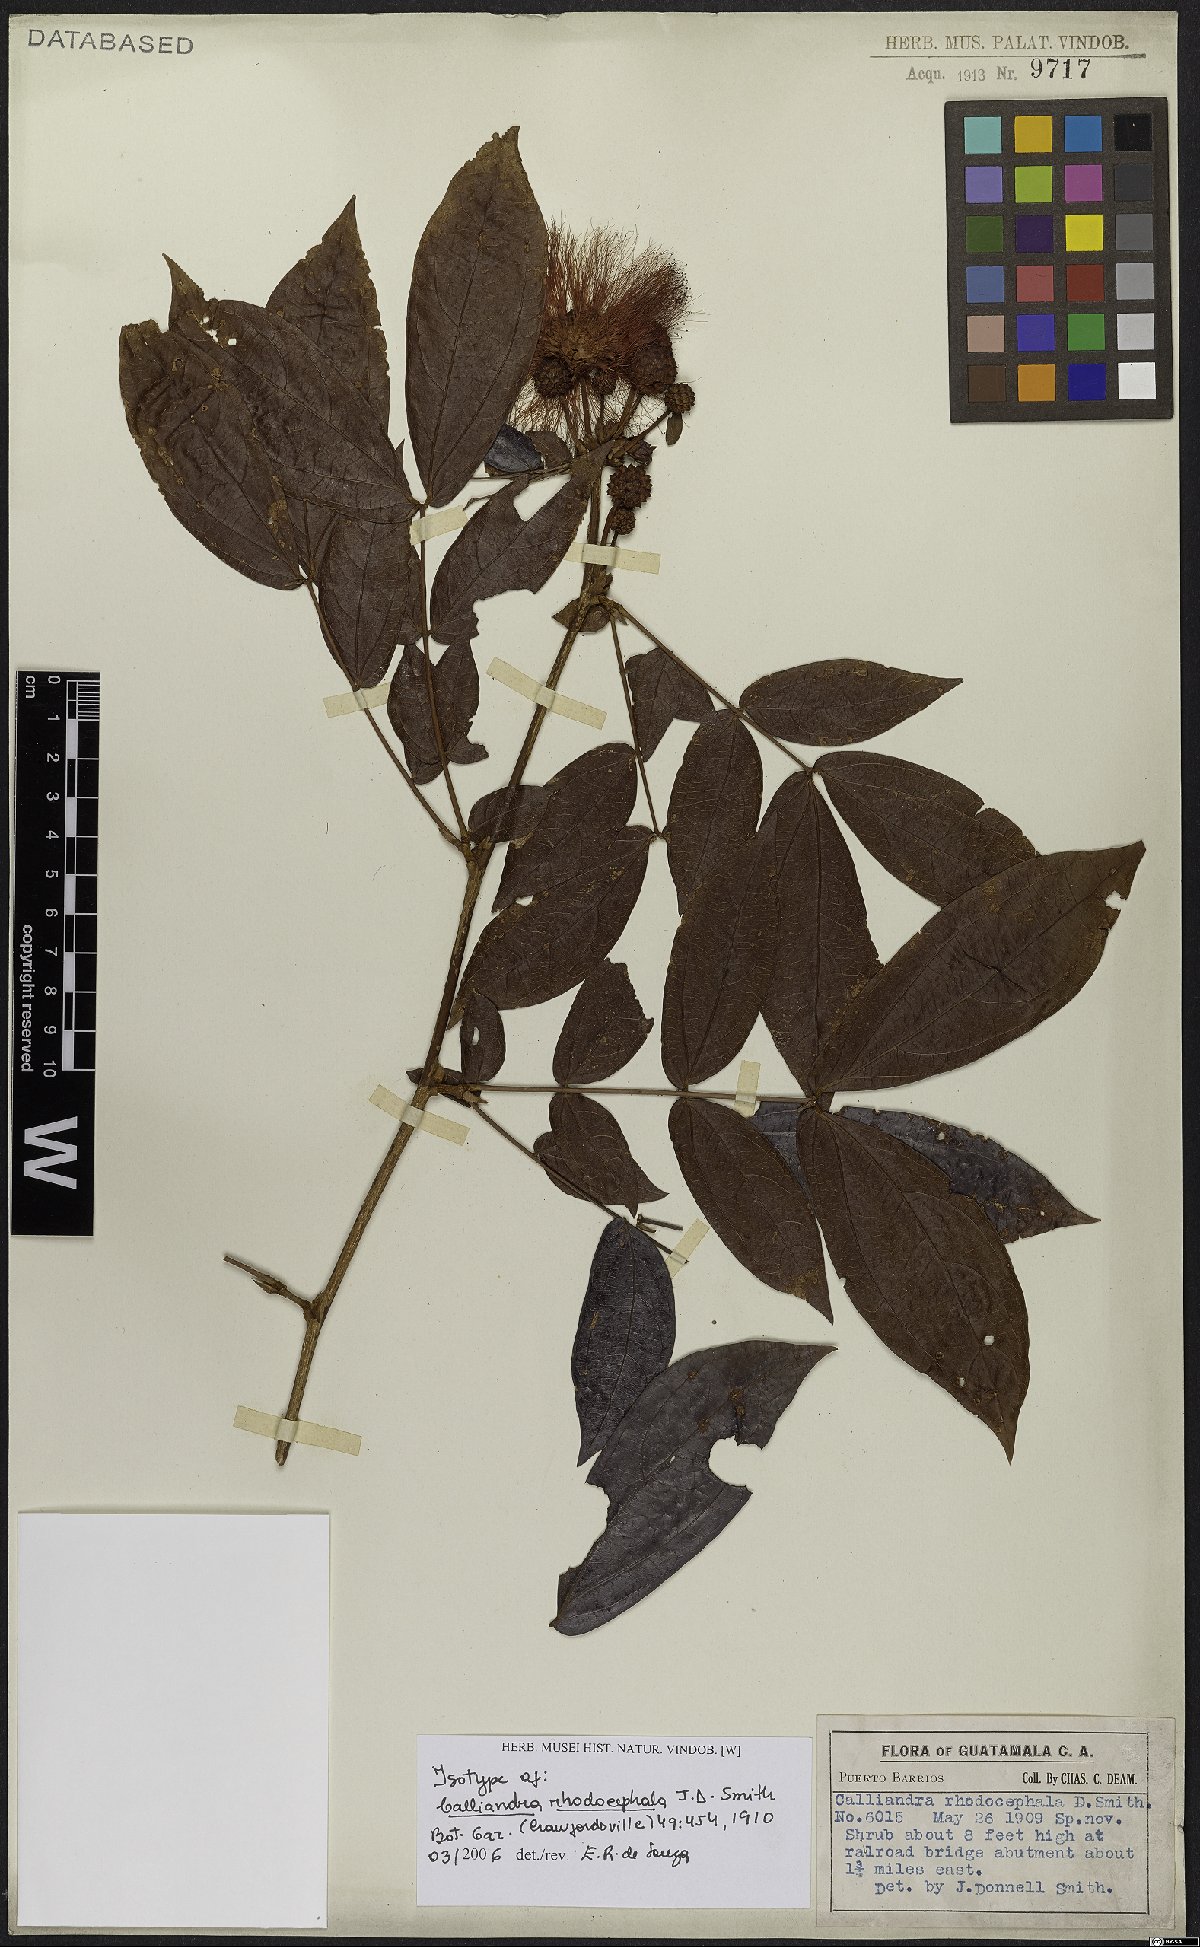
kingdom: Plantae
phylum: Tracheophyta
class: Magnoliopsida
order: Fabales
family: Fabaceae
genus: Calliandra
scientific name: Calliandra rhodocephala
